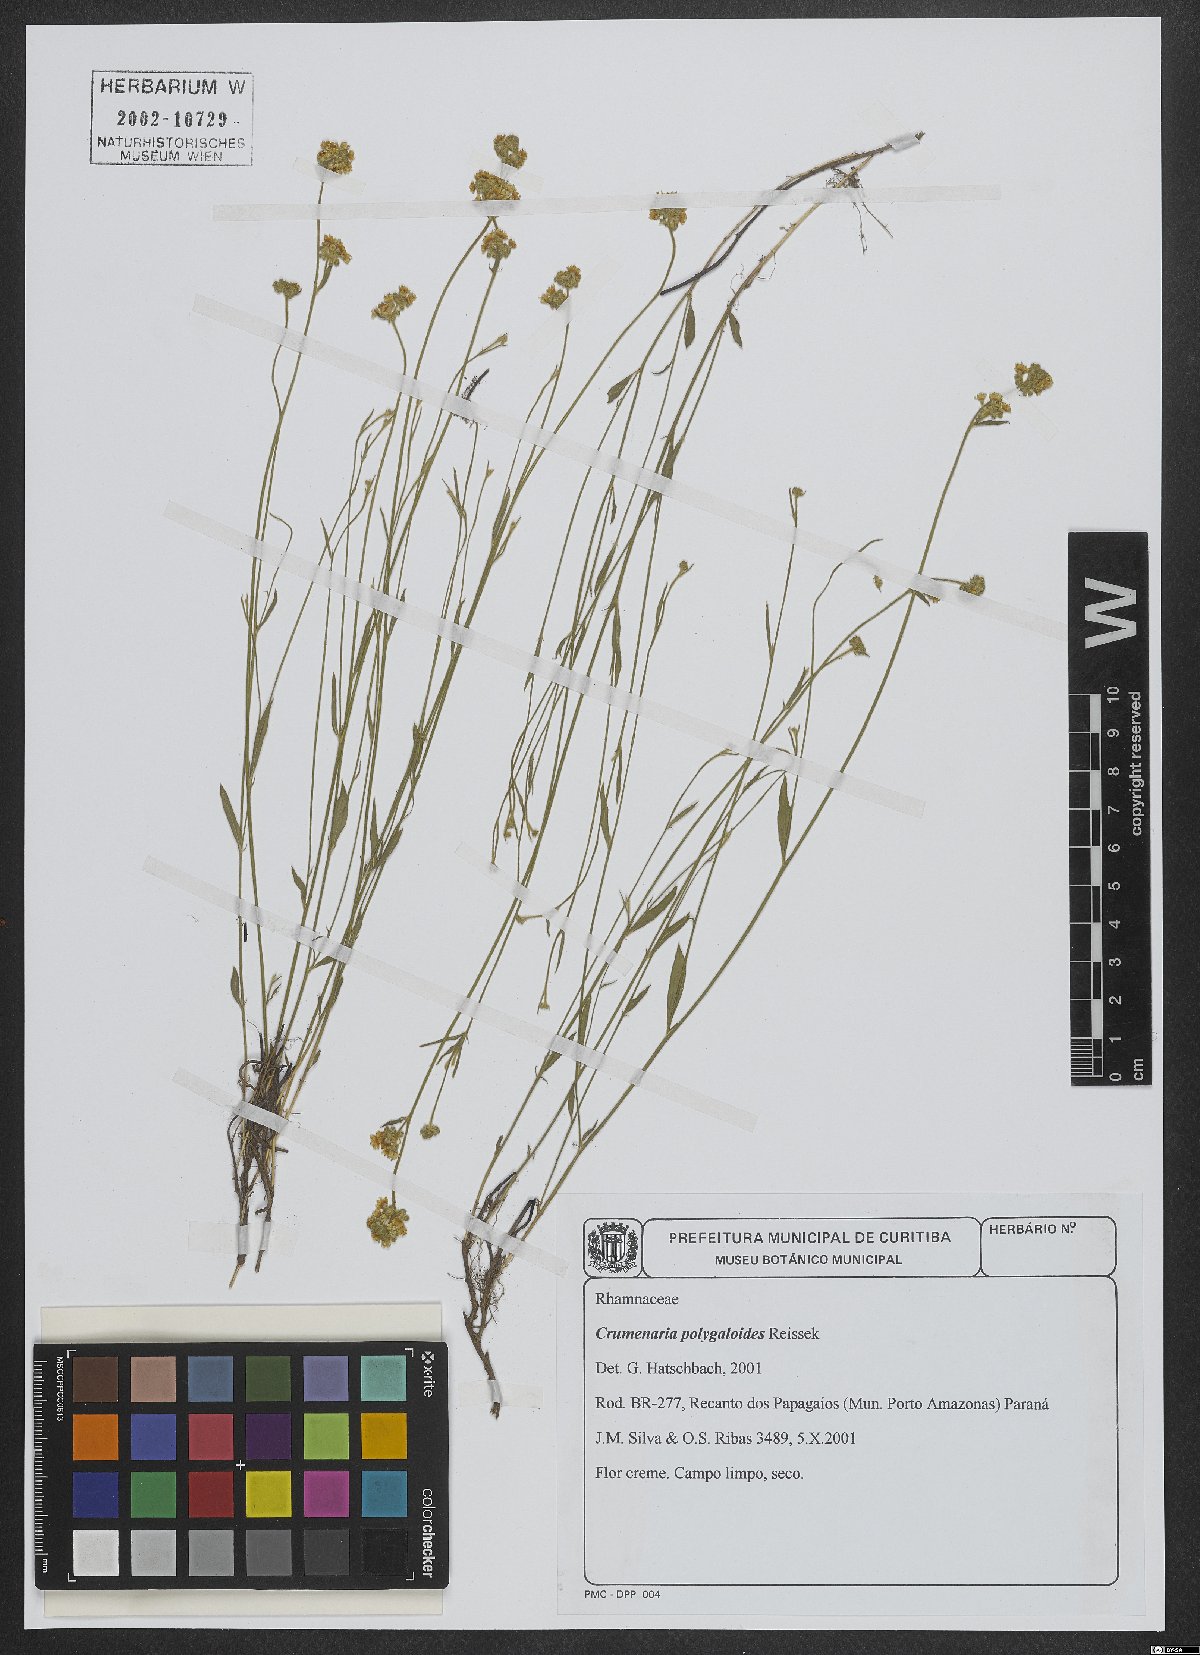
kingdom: Plantae
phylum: Tracheophyta
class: Magnoliopsida
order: Rosales
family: Rhamnaceae
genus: Crumenaria
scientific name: Crumenaria choretroides
